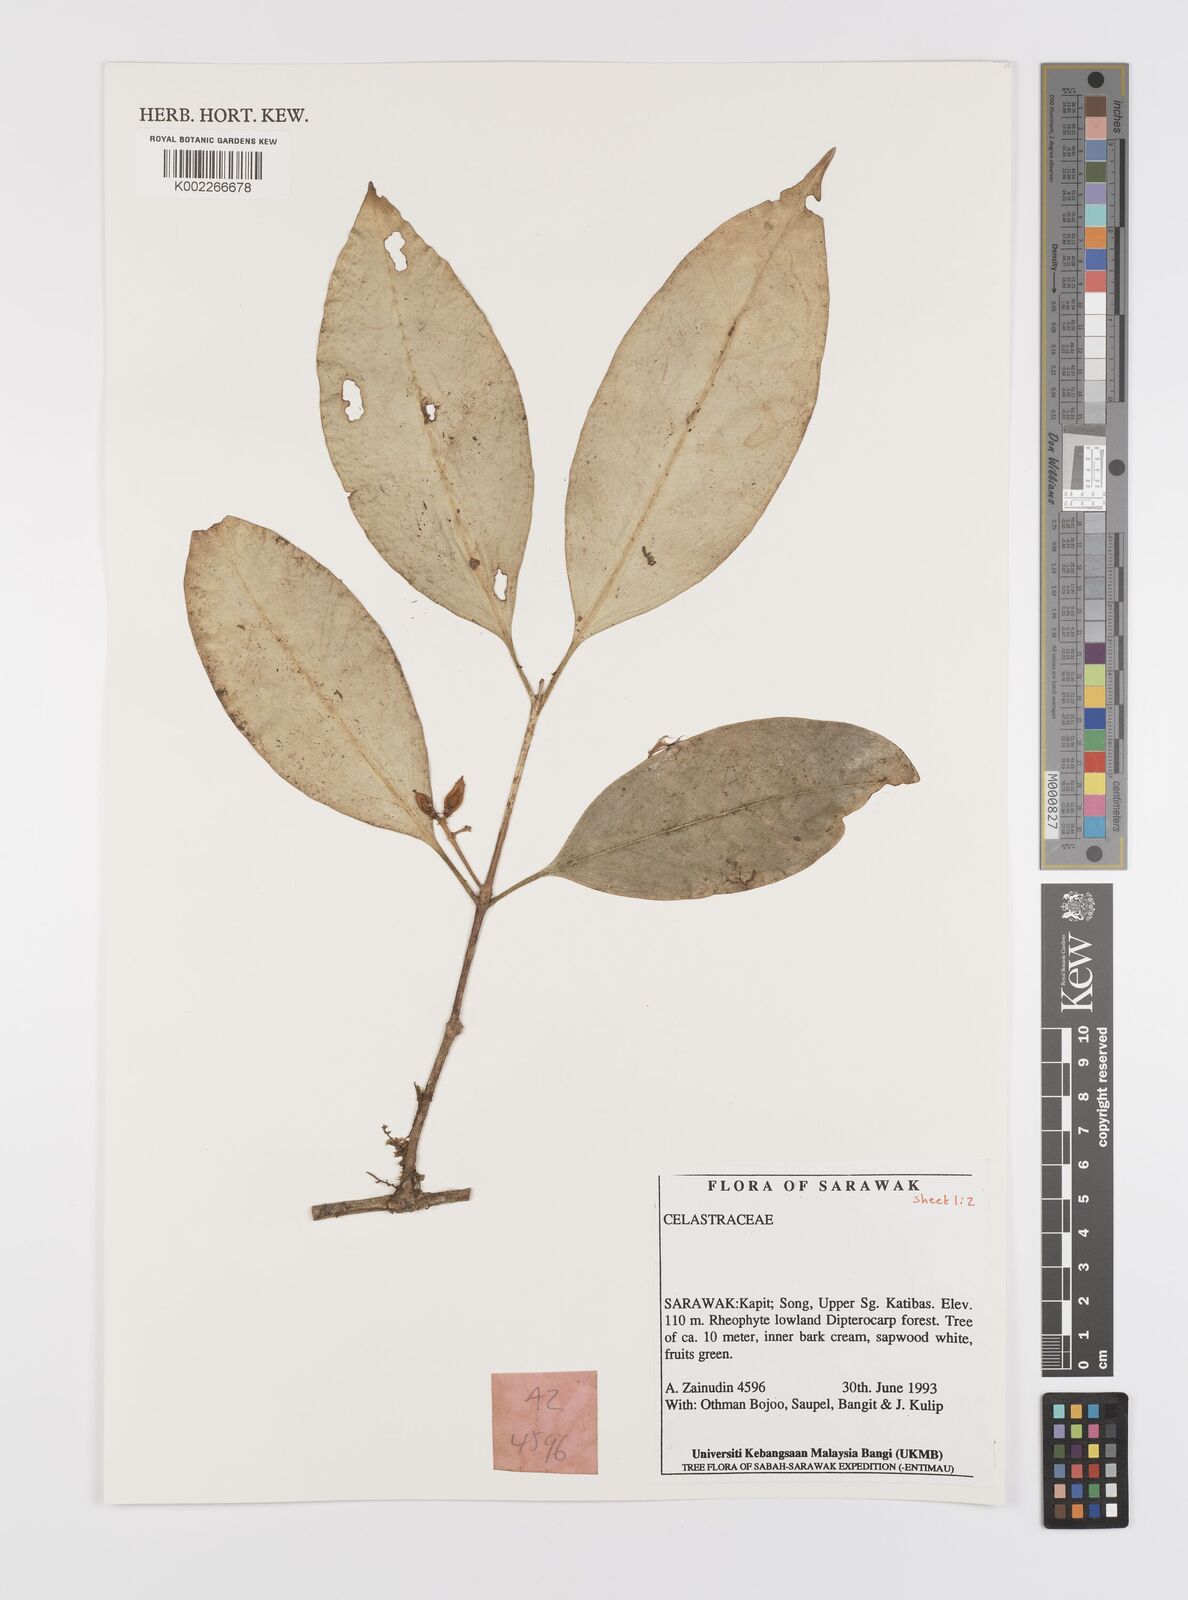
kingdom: Plantae
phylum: Tracheophyta
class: Magnoliopsida
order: Celastrales
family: Celastraceae
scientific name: Celastraceae
